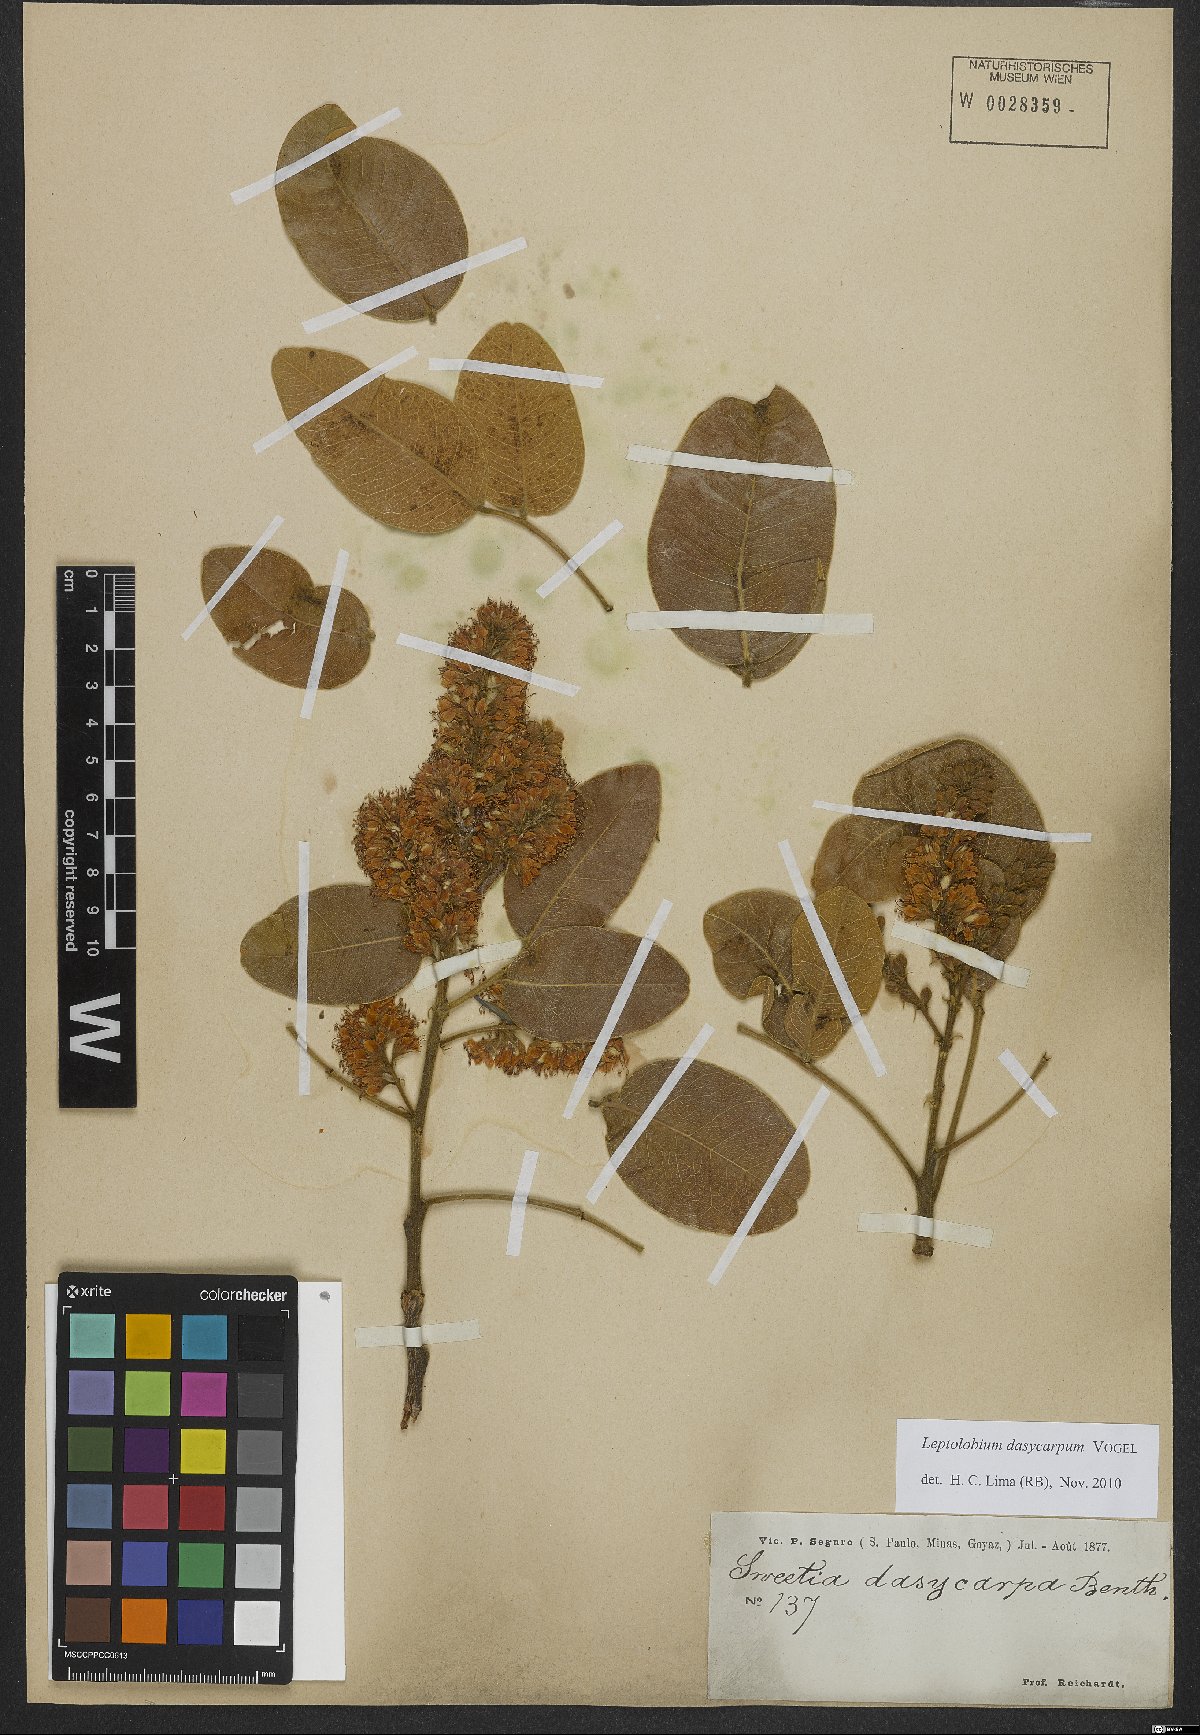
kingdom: Plantae
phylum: Tracheophyta
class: Magnoliopsida
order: Fabales
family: Fabaceae
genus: Leptolobium
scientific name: Leptolobium dasycarpum
